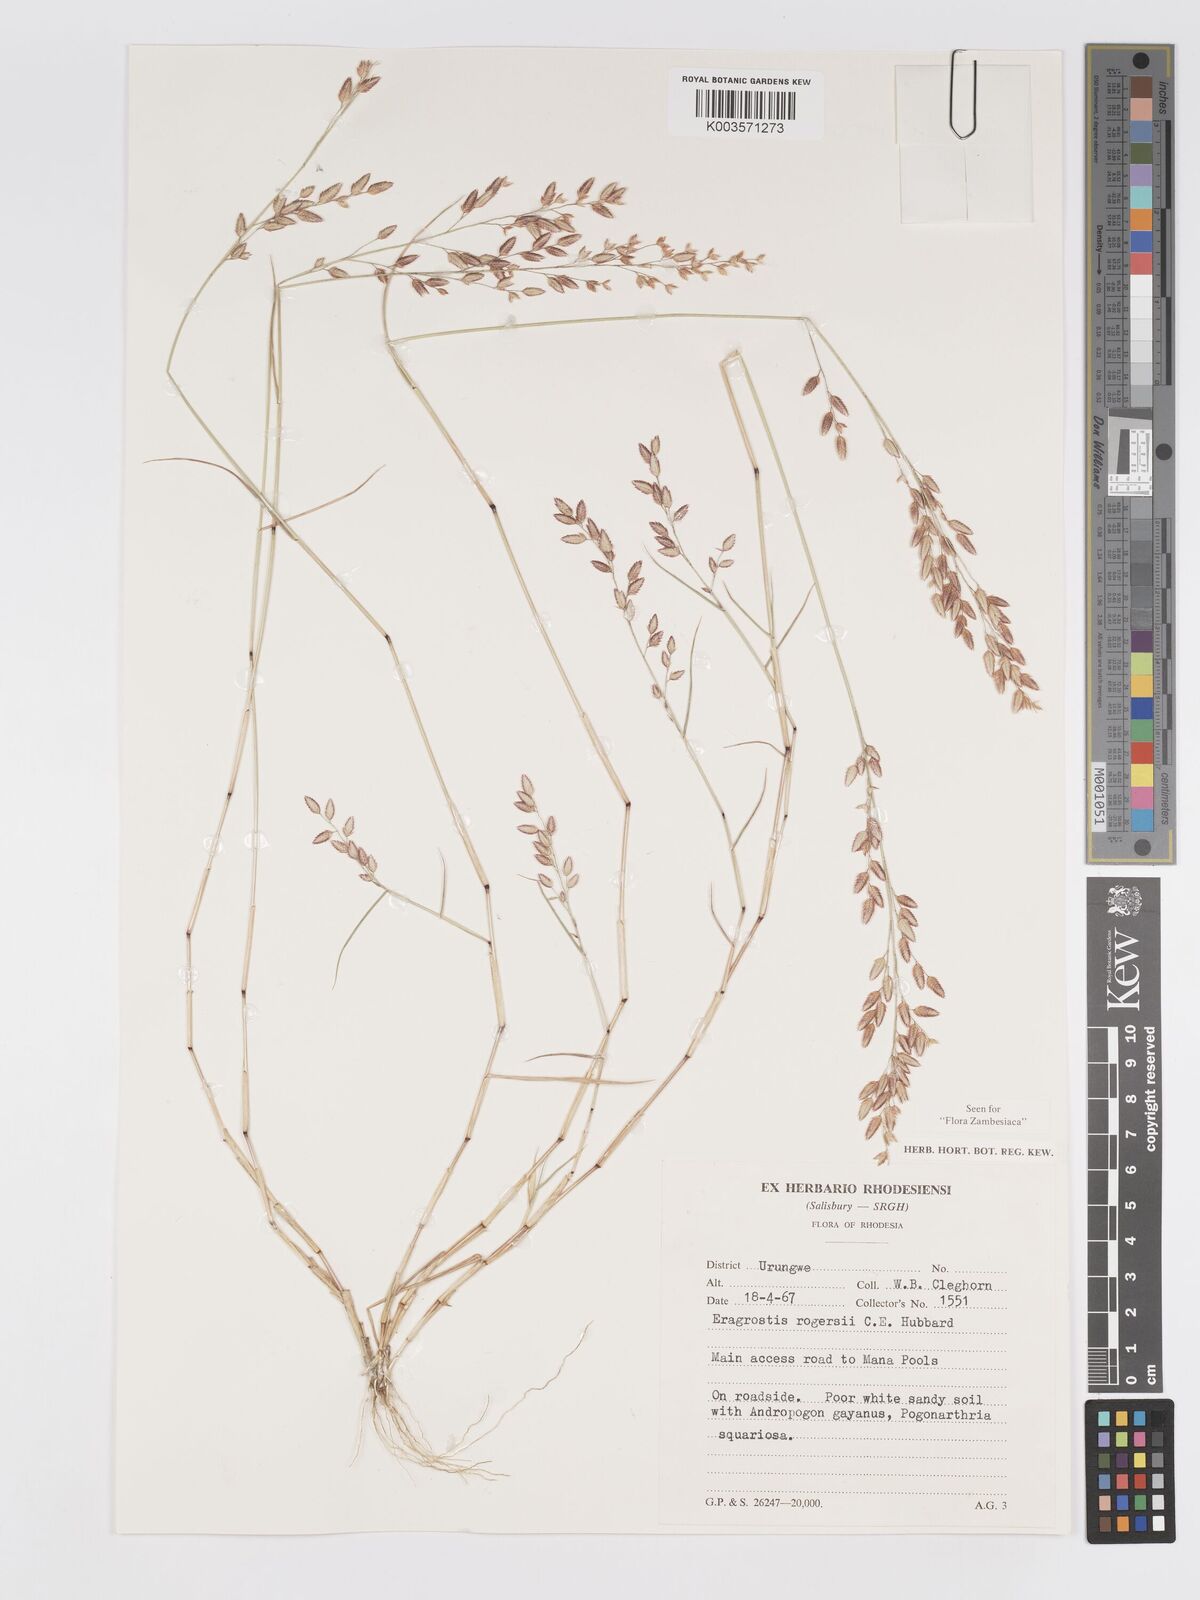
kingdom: Plantae
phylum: Tracheophyta
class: Liliopsida
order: Poales
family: Poaceae
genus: Eragrostis
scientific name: Eragrostis rogersii
